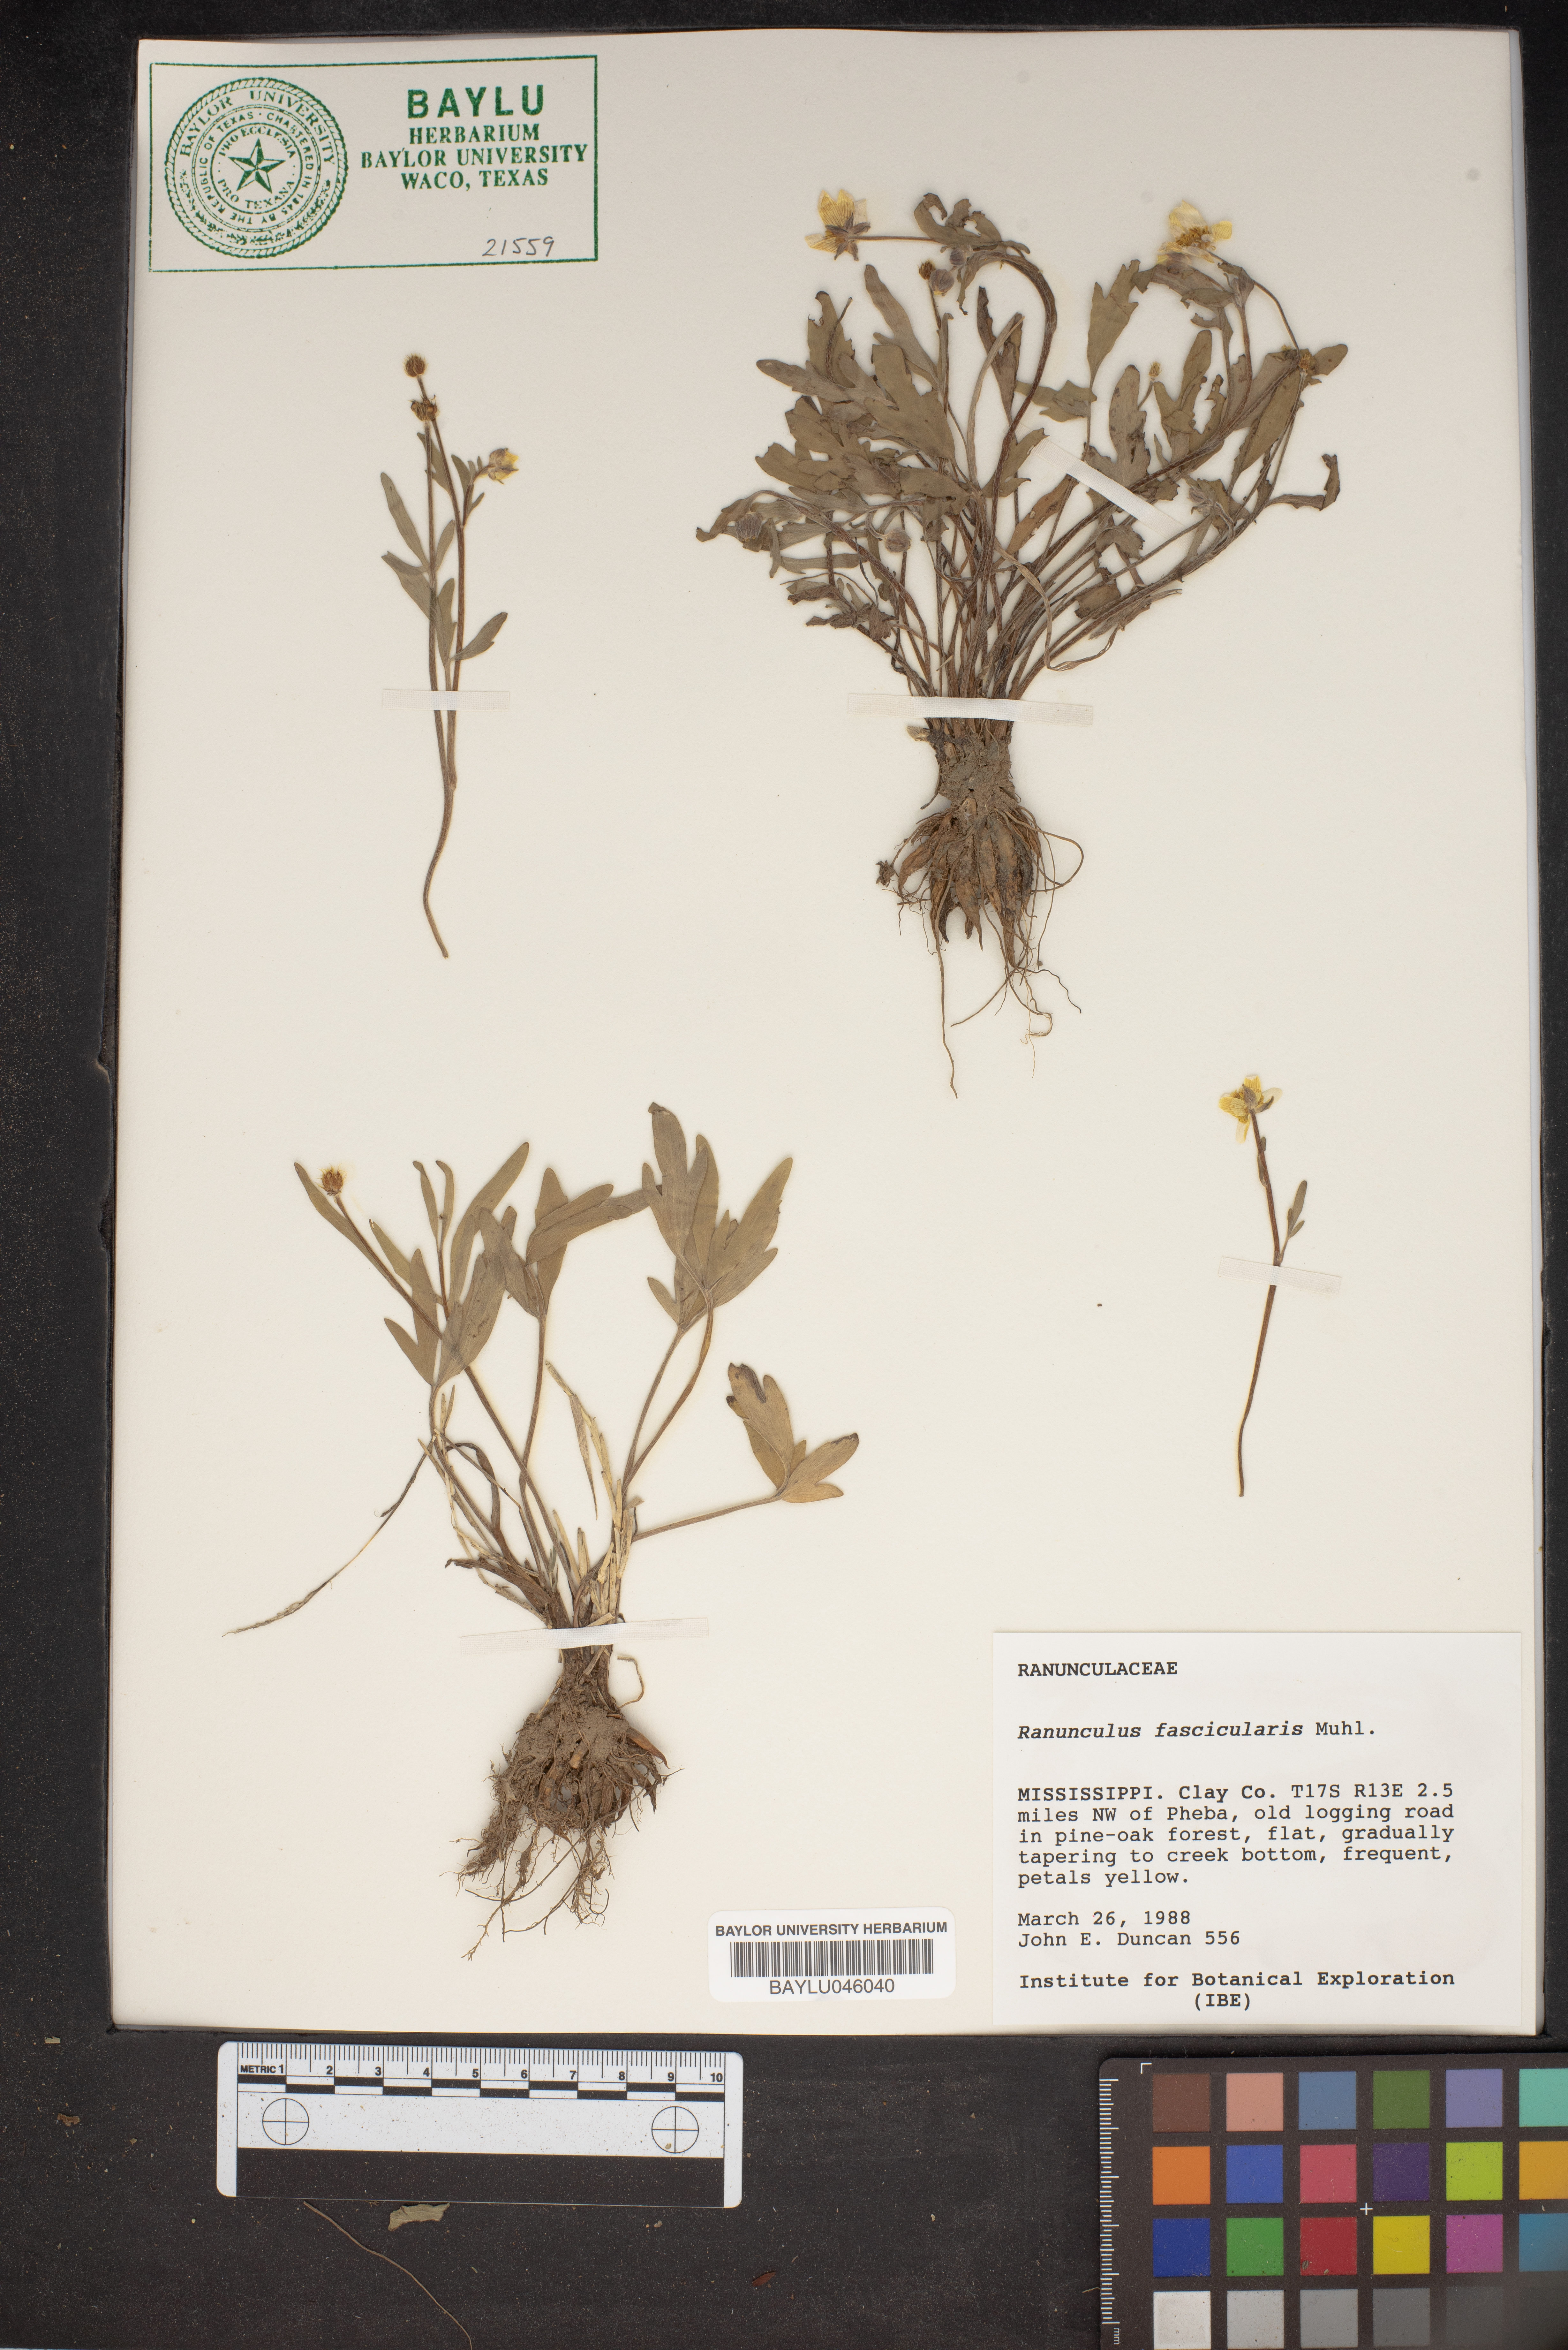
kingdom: Plantae
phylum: Tracheophyta
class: Magnoliopsida
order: Ranunculales
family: Ranunculaceae
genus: Ranunculus
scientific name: Ranunculus fascicularis
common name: Early buttercup
